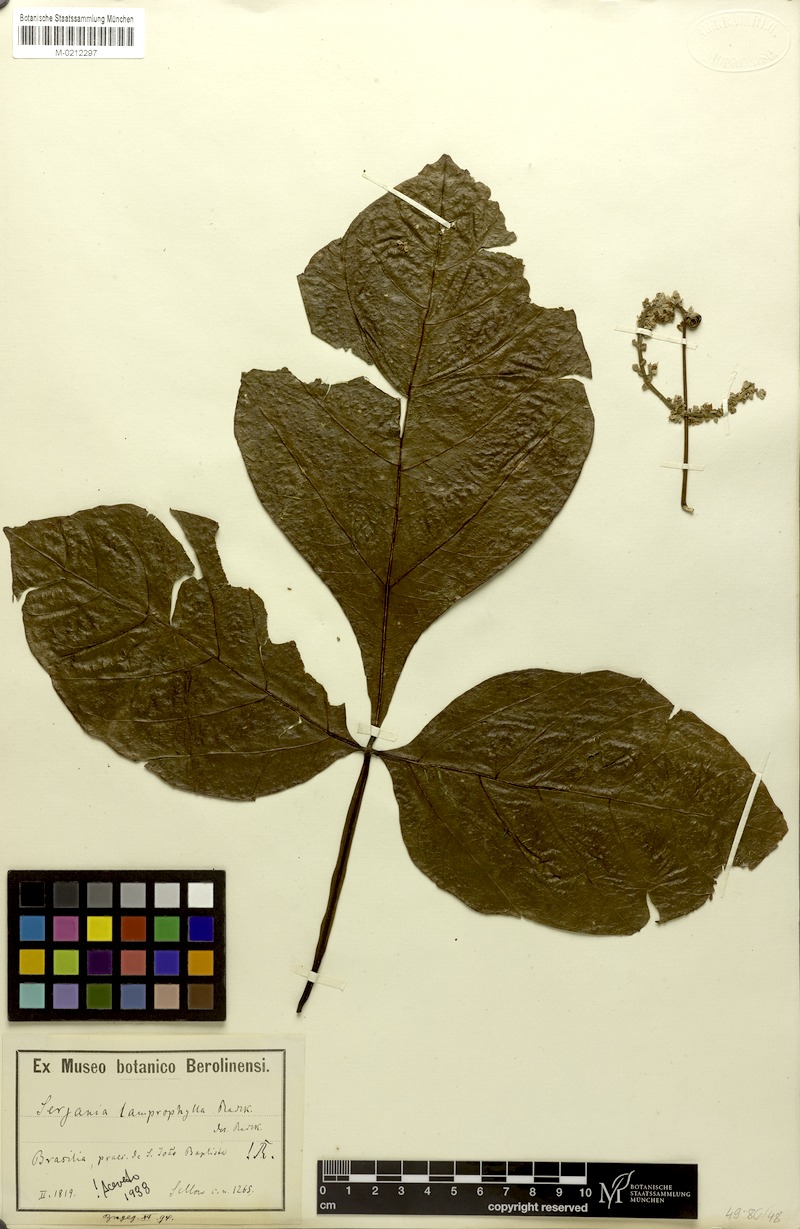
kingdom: Plantae
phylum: Tracheophyta
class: Magnoliopsida
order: Sapindales
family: Sapindaceae
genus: Serjania
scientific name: Serjania lamprophylla
